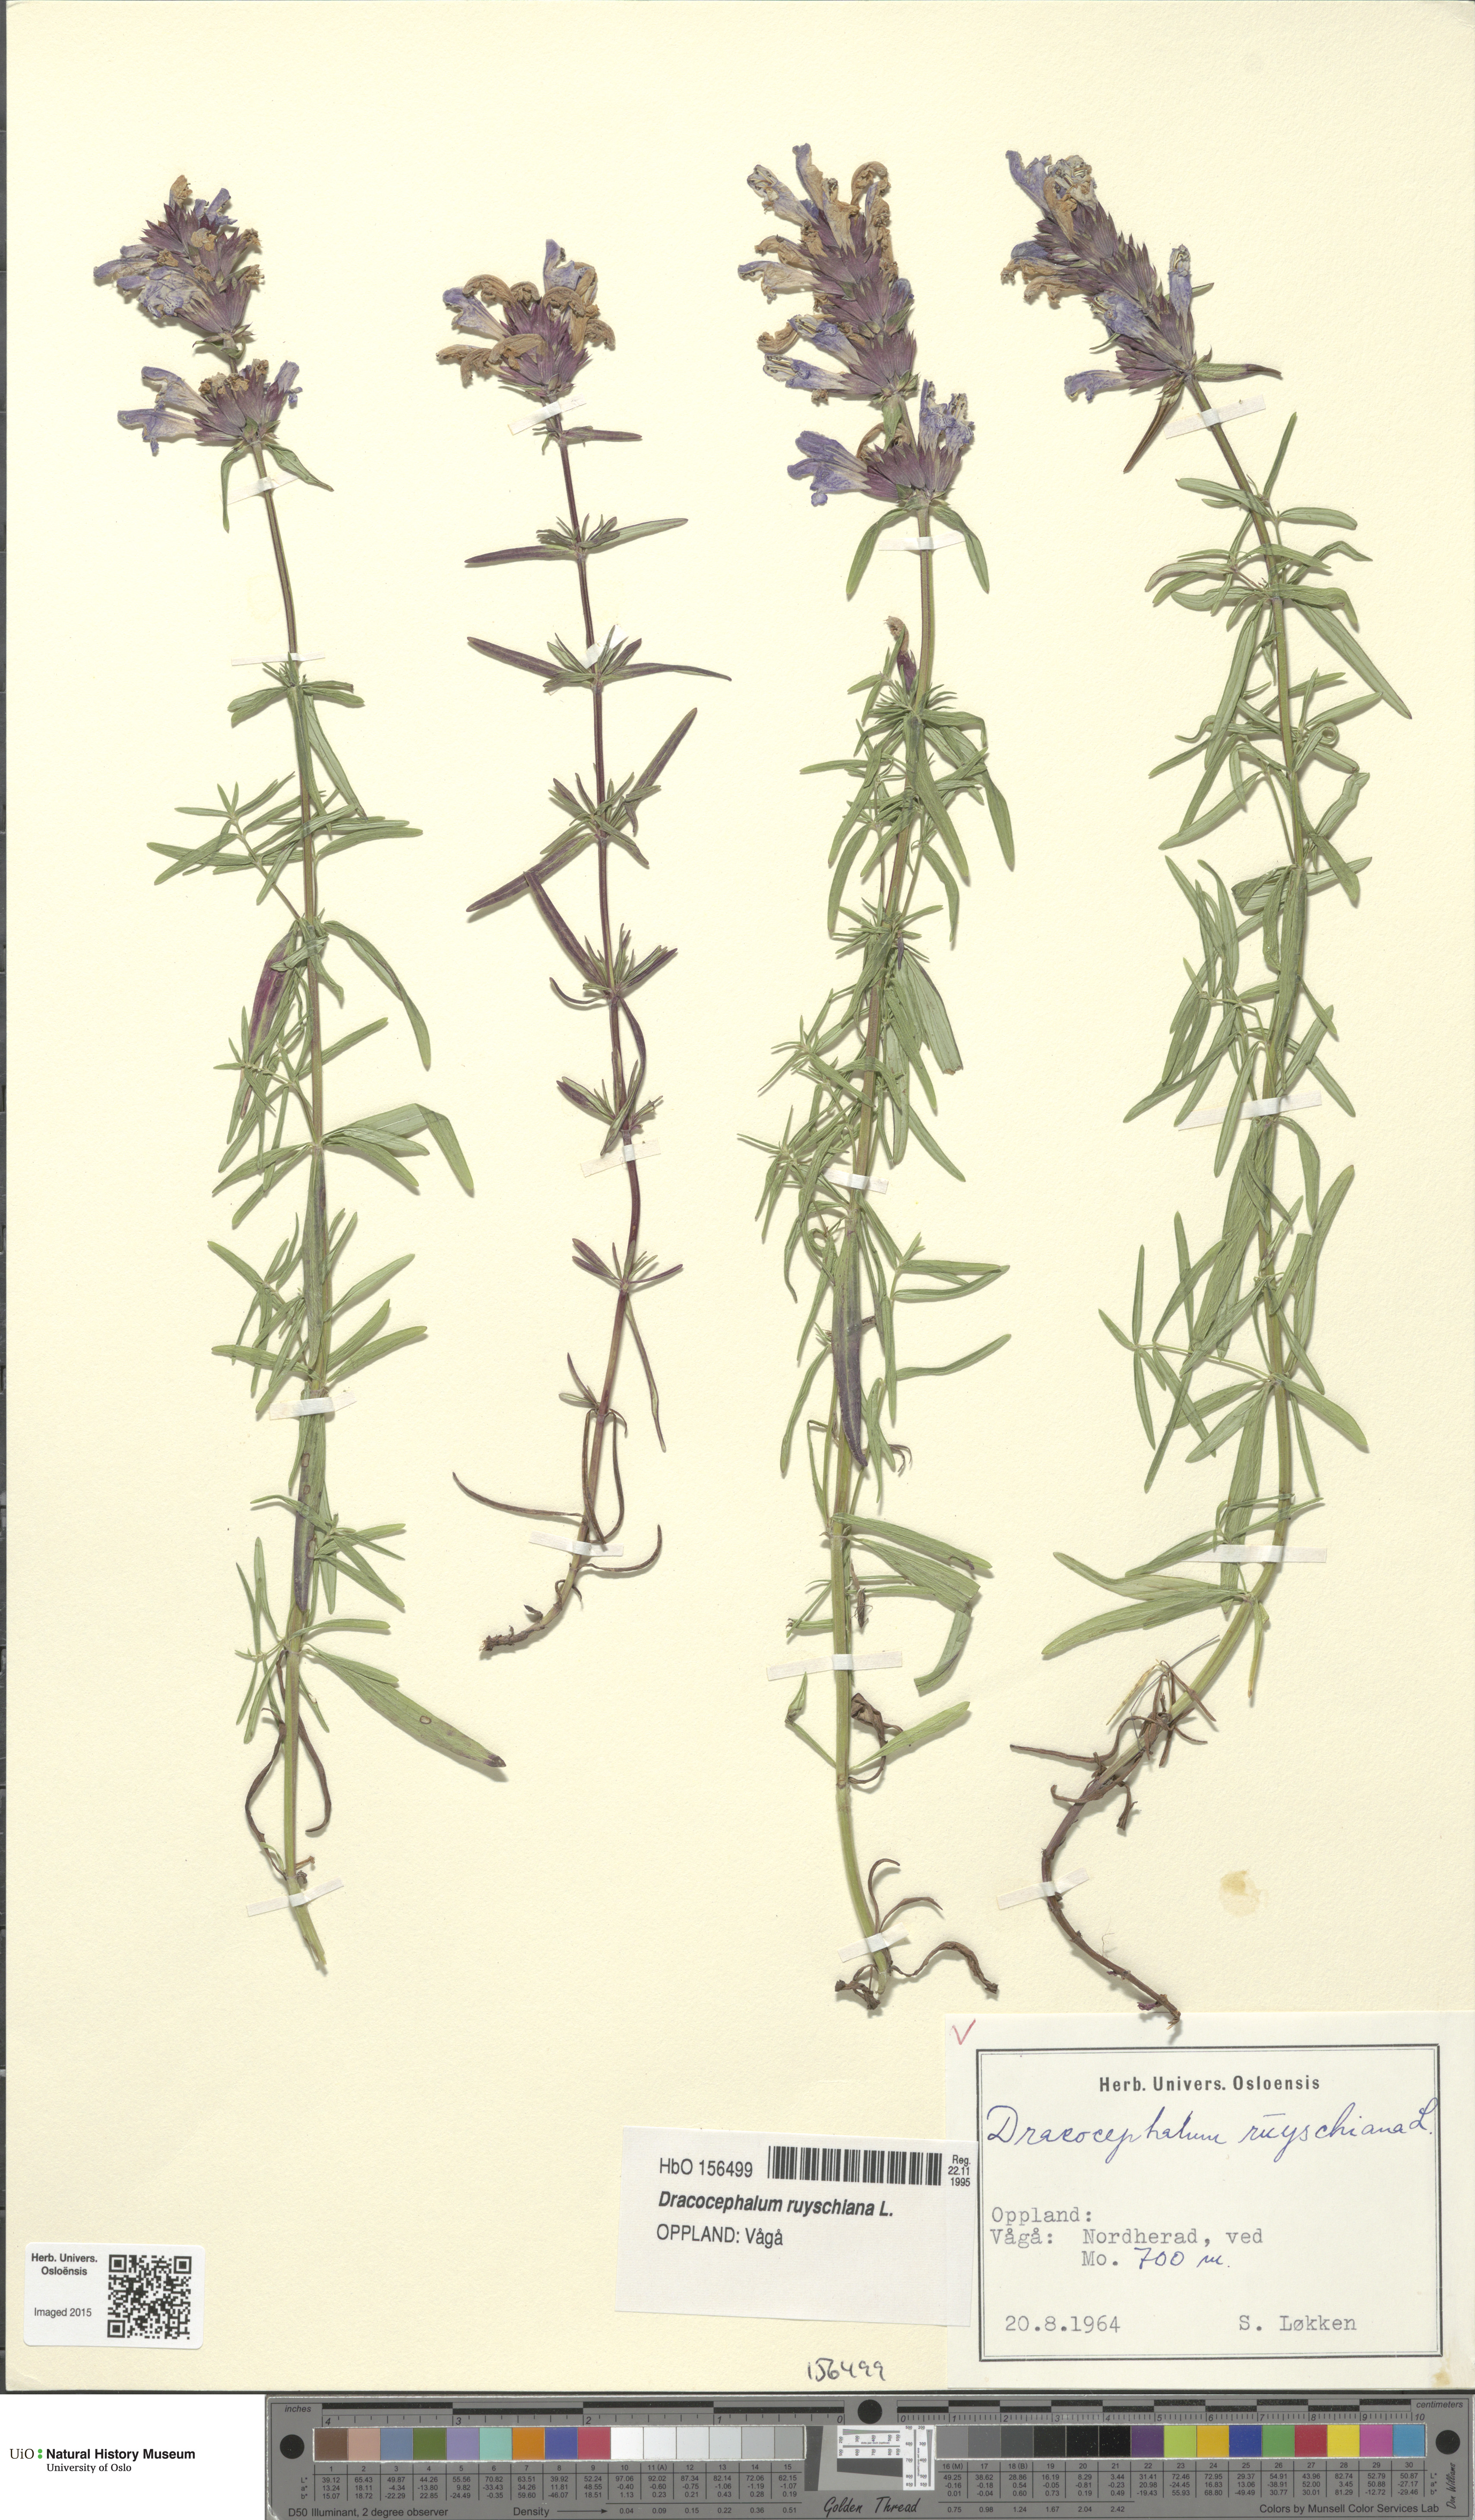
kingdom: Plantae
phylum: Tracheophyta
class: Magnoliopsida
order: Lamiales
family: Lamiaceae
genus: Dracocephalum
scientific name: Dracocephalum ruyschiana
